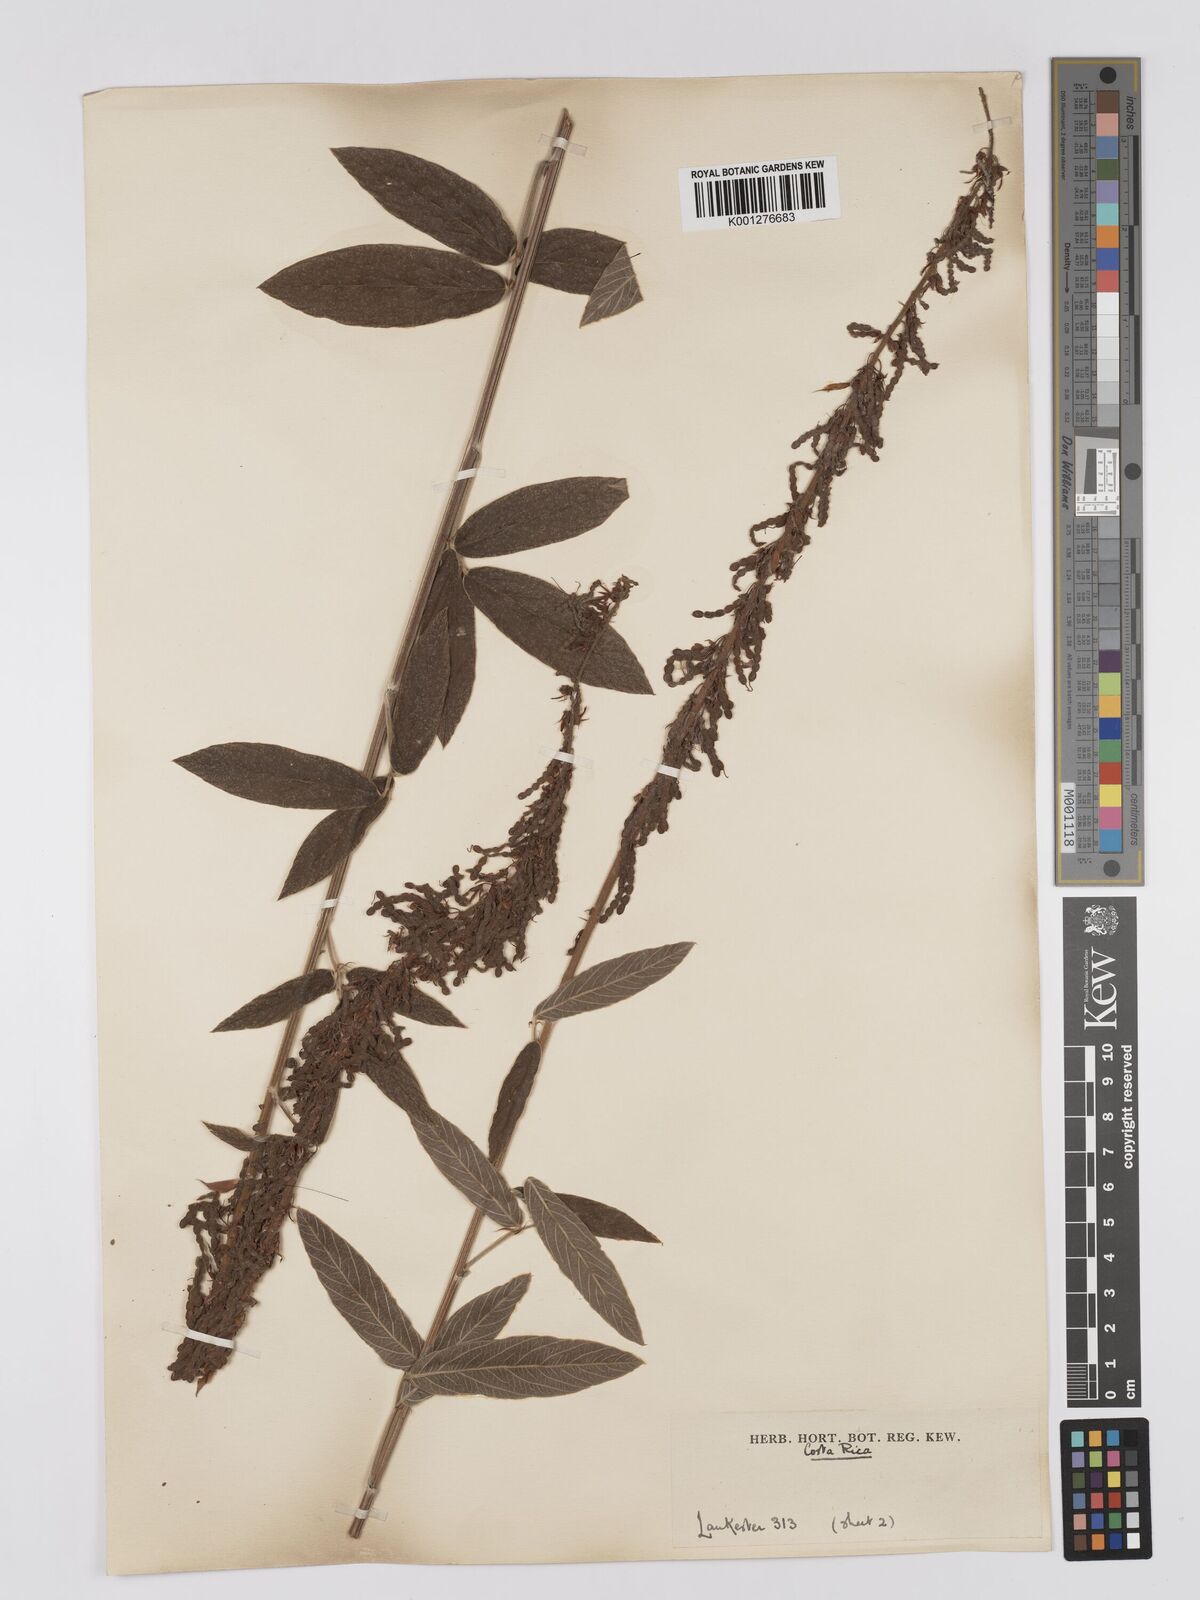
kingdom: Plantae
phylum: Tracheophyta
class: Magnoliopsida
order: Fabales
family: Fabaceae
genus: Desmodium
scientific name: Desmodium sericophyllum
